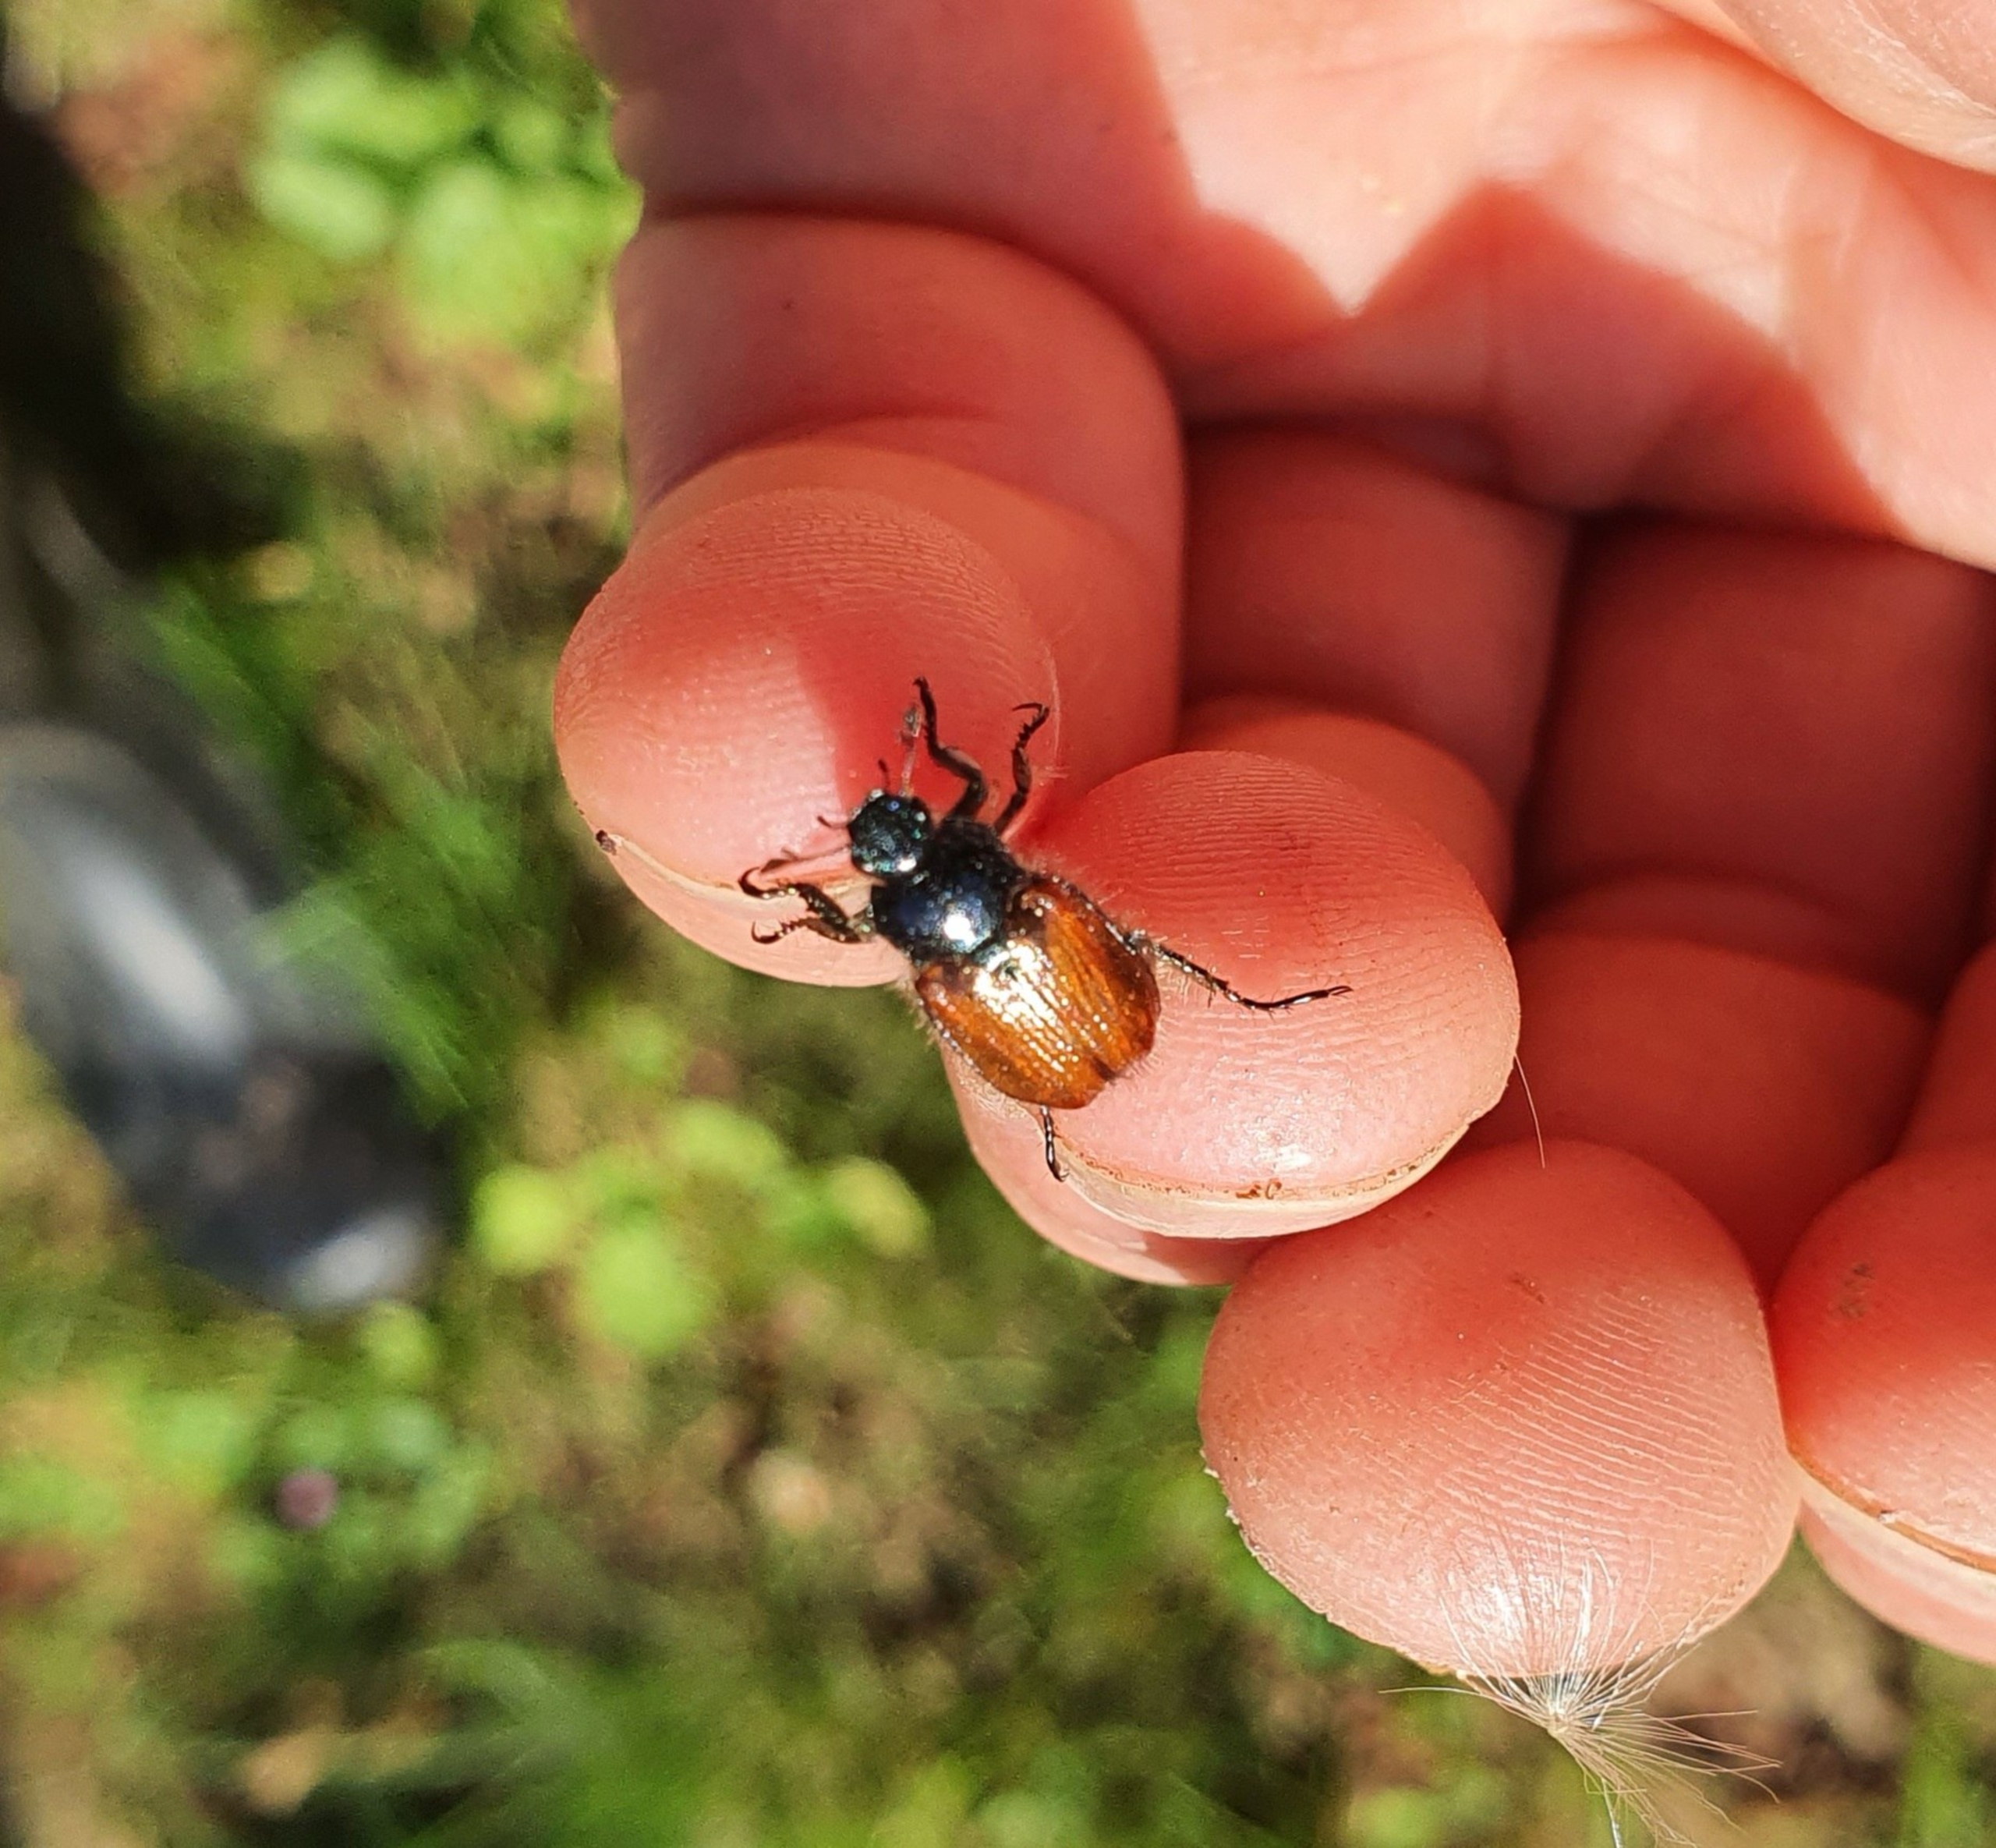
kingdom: Animalia
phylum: Arthropoda
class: Insecta
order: Coleoptera
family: Scarabaeidae
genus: Phyllopertha
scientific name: Phyllopertha horticola
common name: Gåsebille
